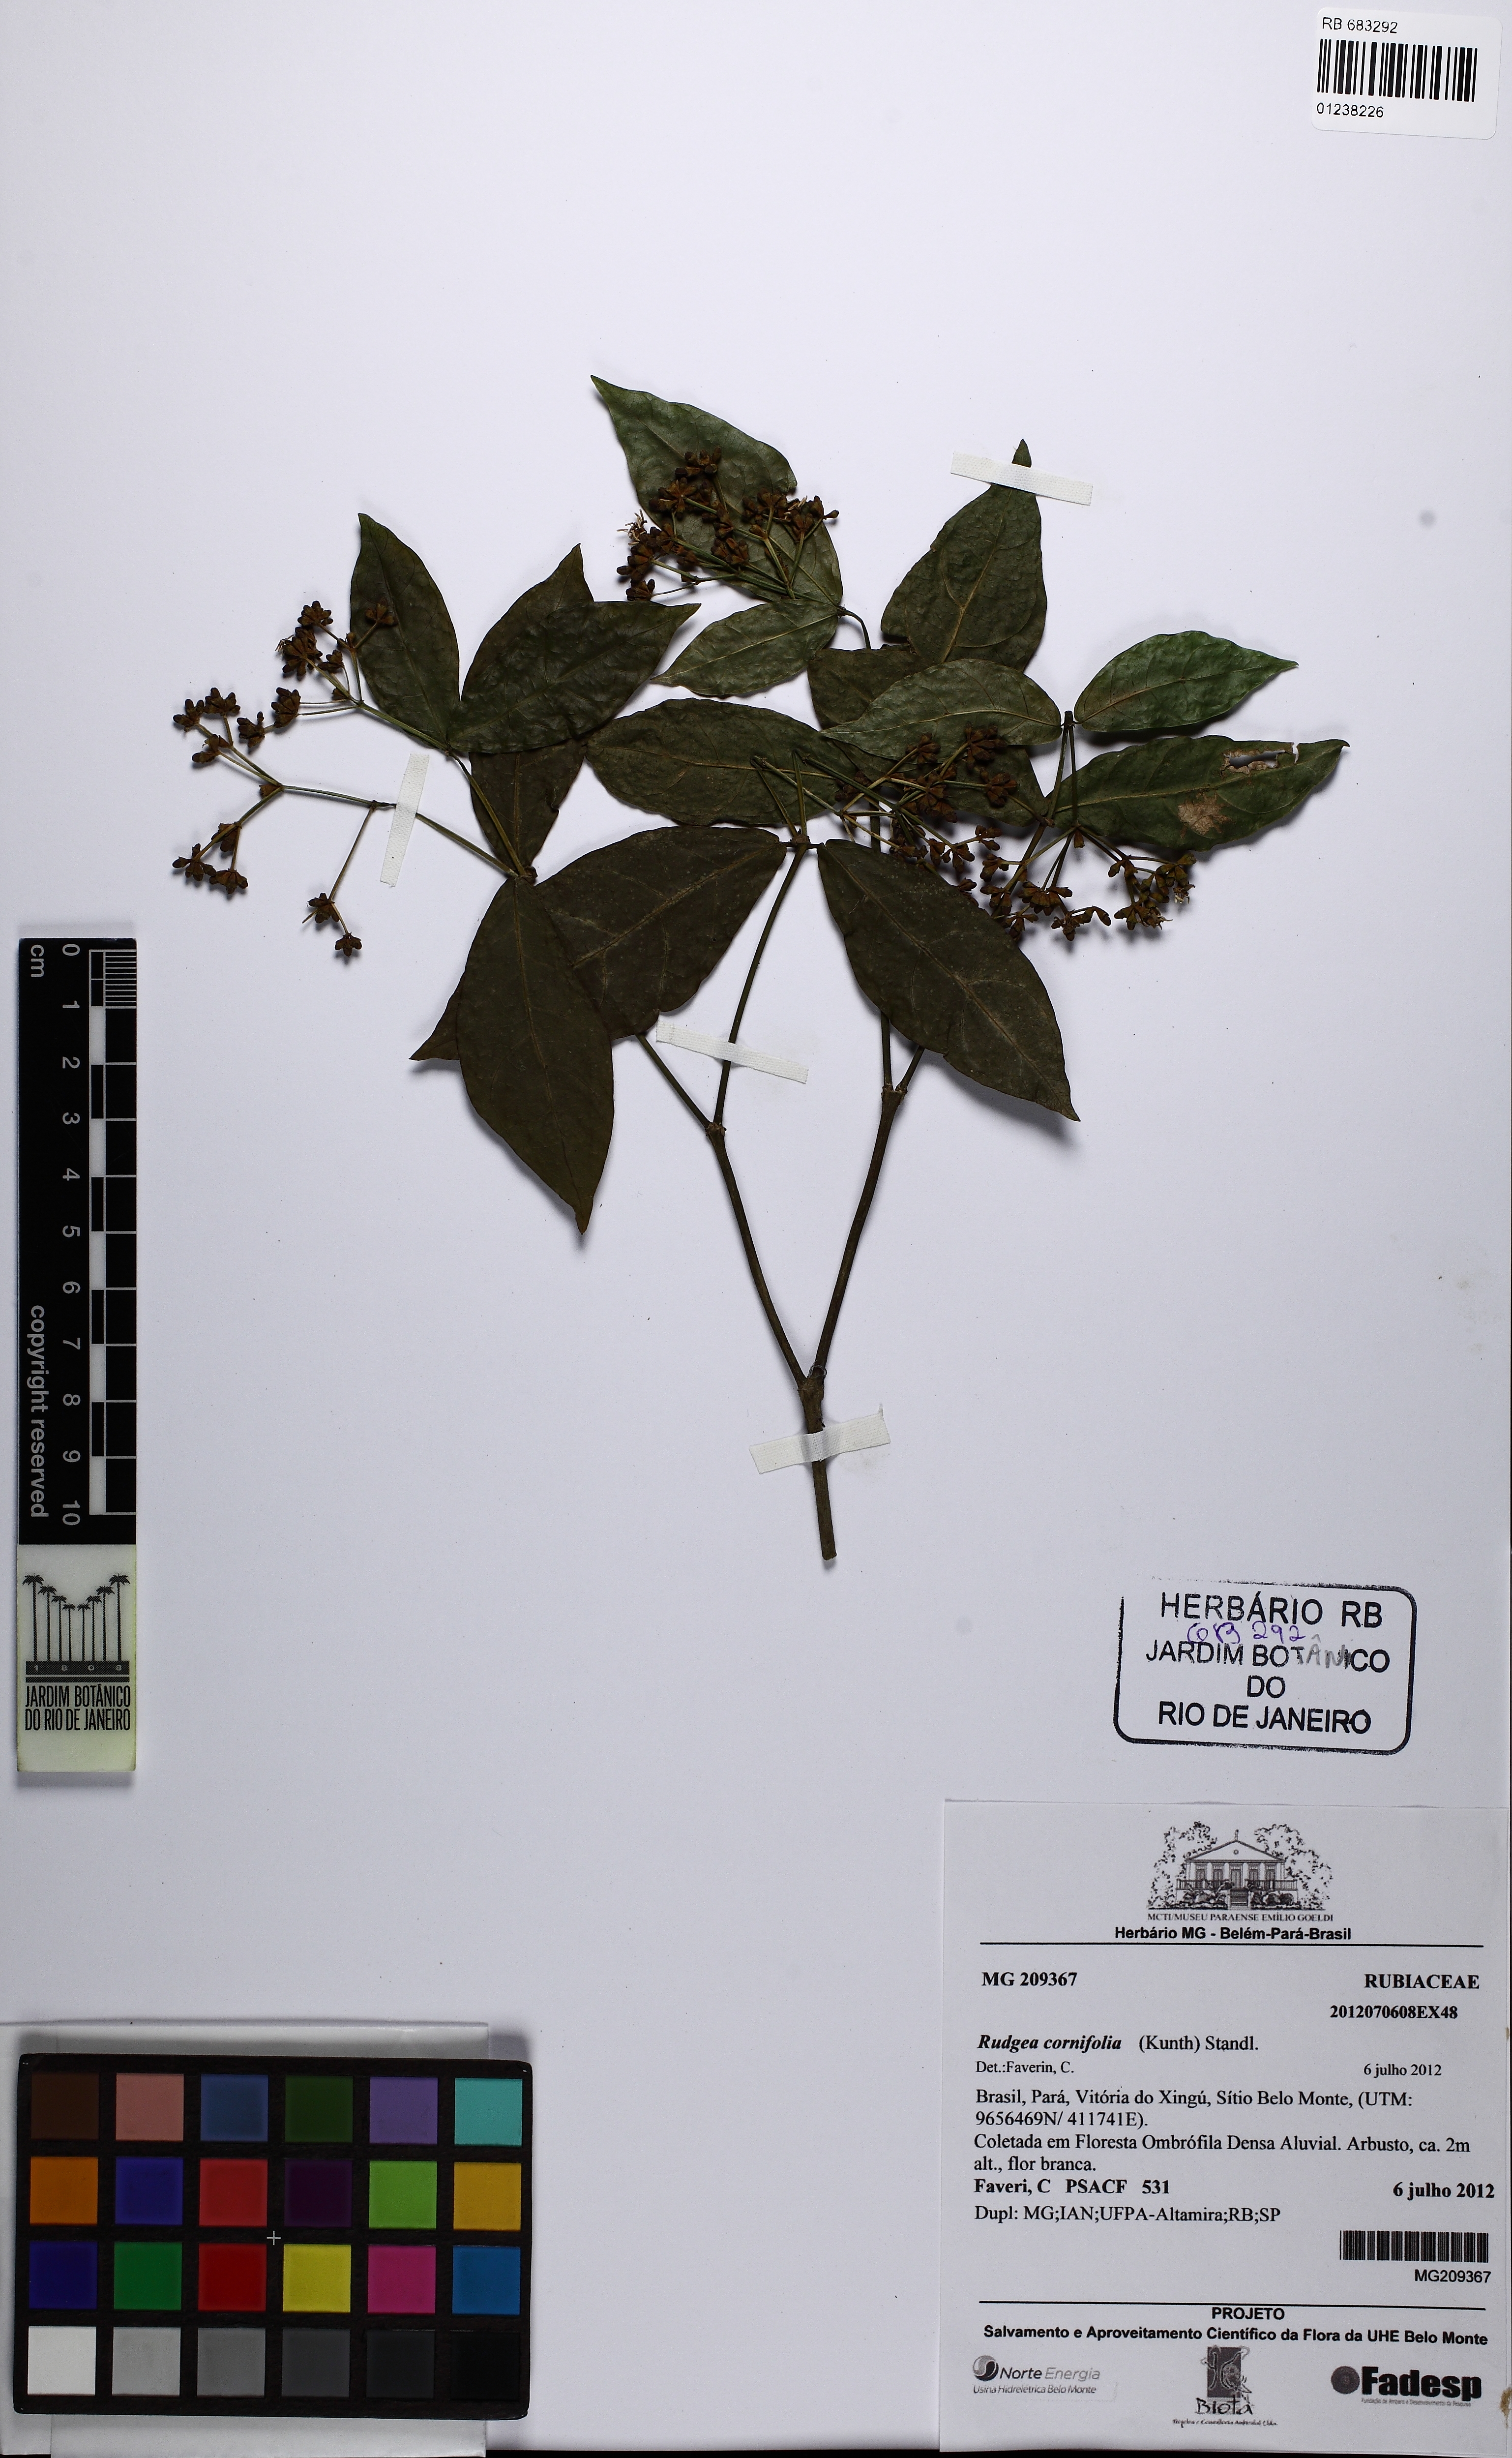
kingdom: Plantae
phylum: Tracheophyta
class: Magnoliopsida
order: Gentianales
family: Rubiaceae
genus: Rudgea
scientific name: Rudgea cornifolia
